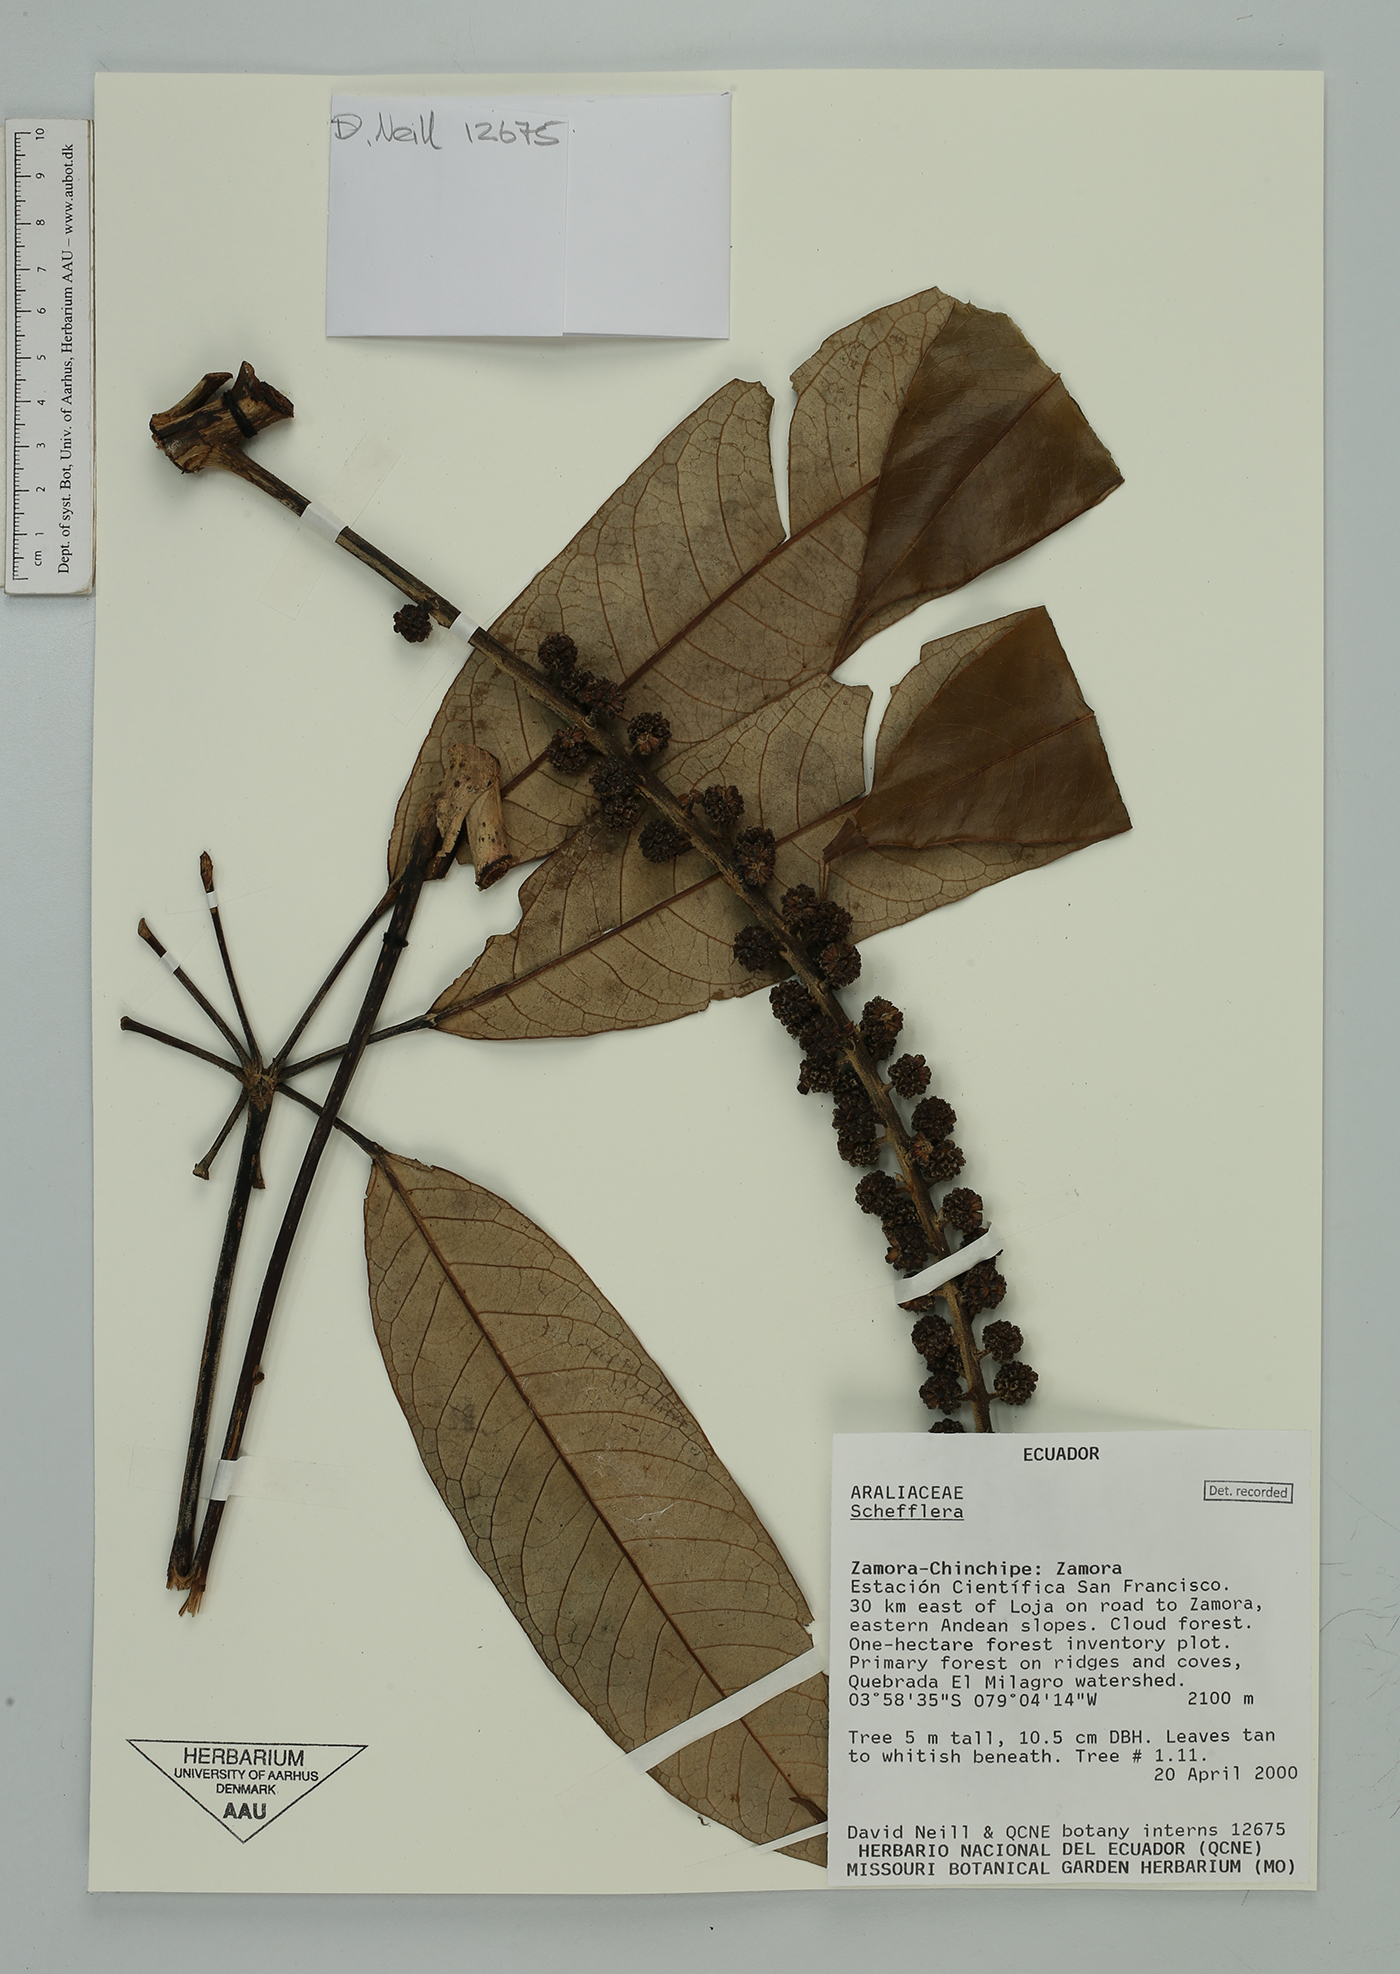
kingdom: Plantae
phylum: Tracheophyta
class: Magnoliopsida
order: Apiales
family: Araliaceae
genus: Sciodaphyllum
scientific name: Sciodaphyllum
